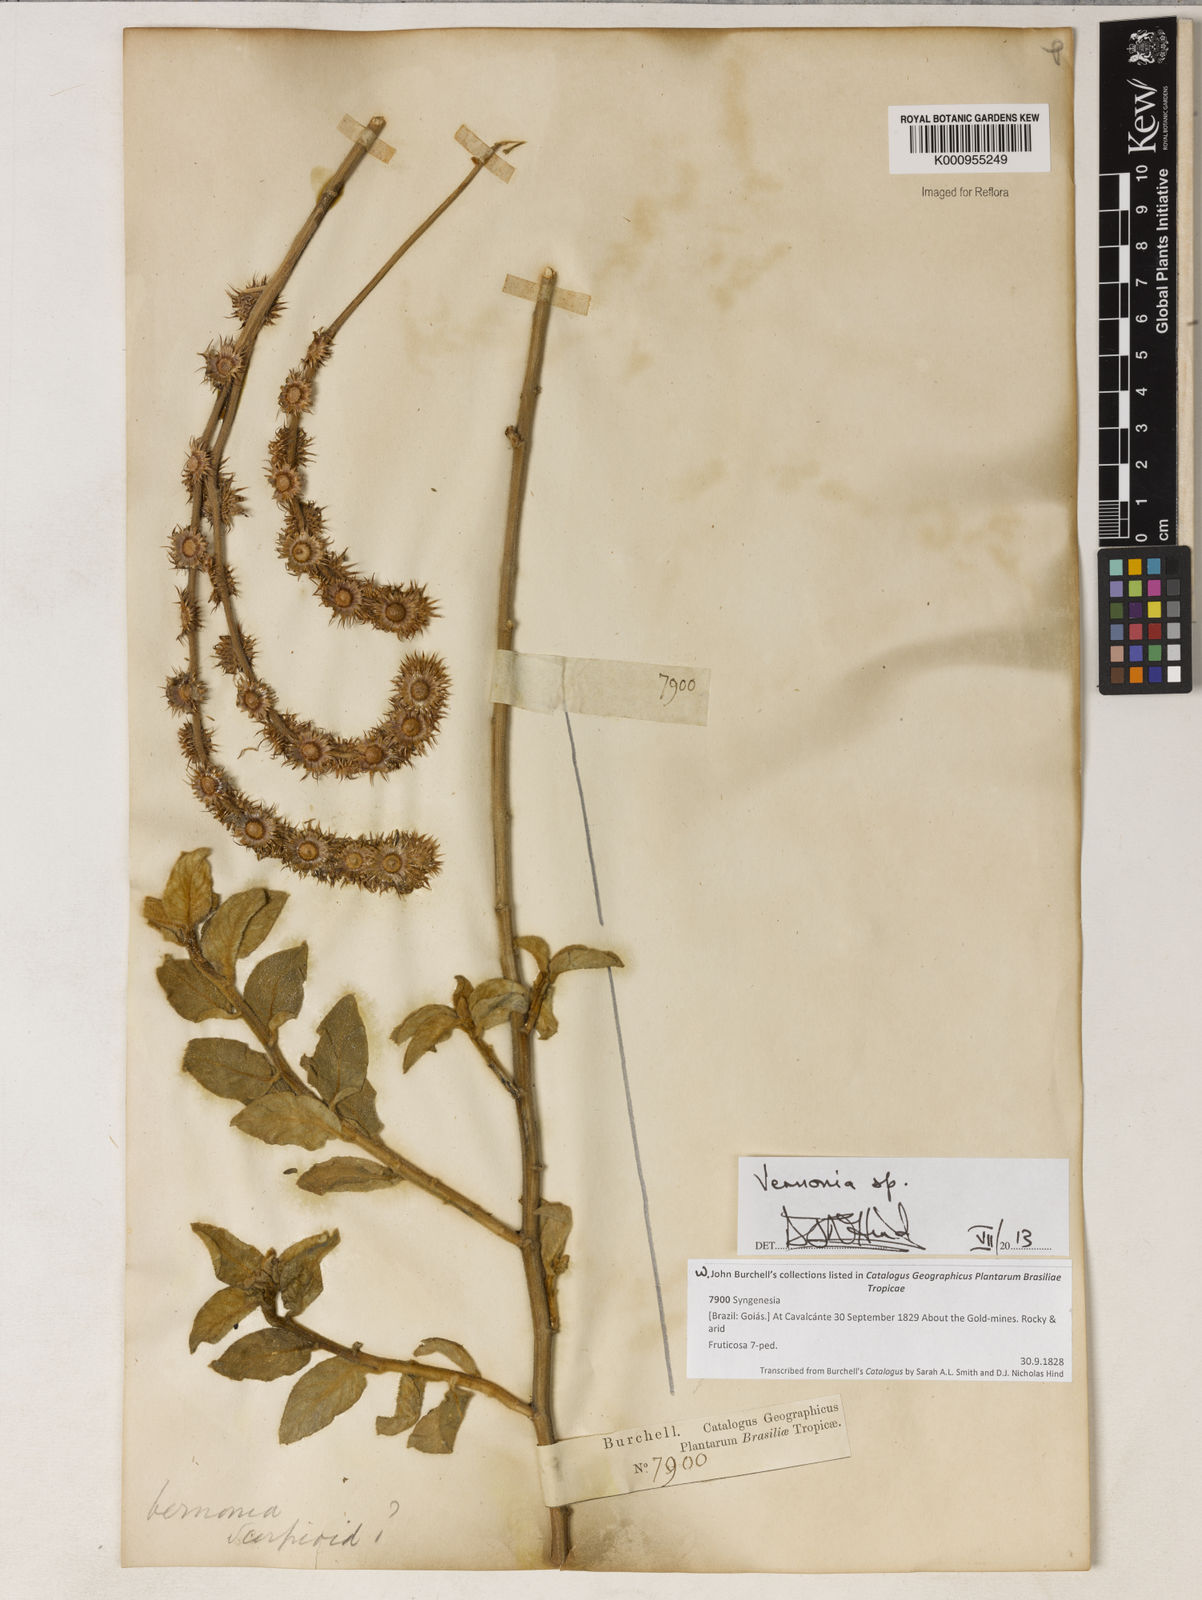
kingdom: Plantae
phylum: Tracheophyta
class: Magnoliopsida
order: Asterales
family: Asteraceae
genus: Vernonia
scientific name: Vernonia
